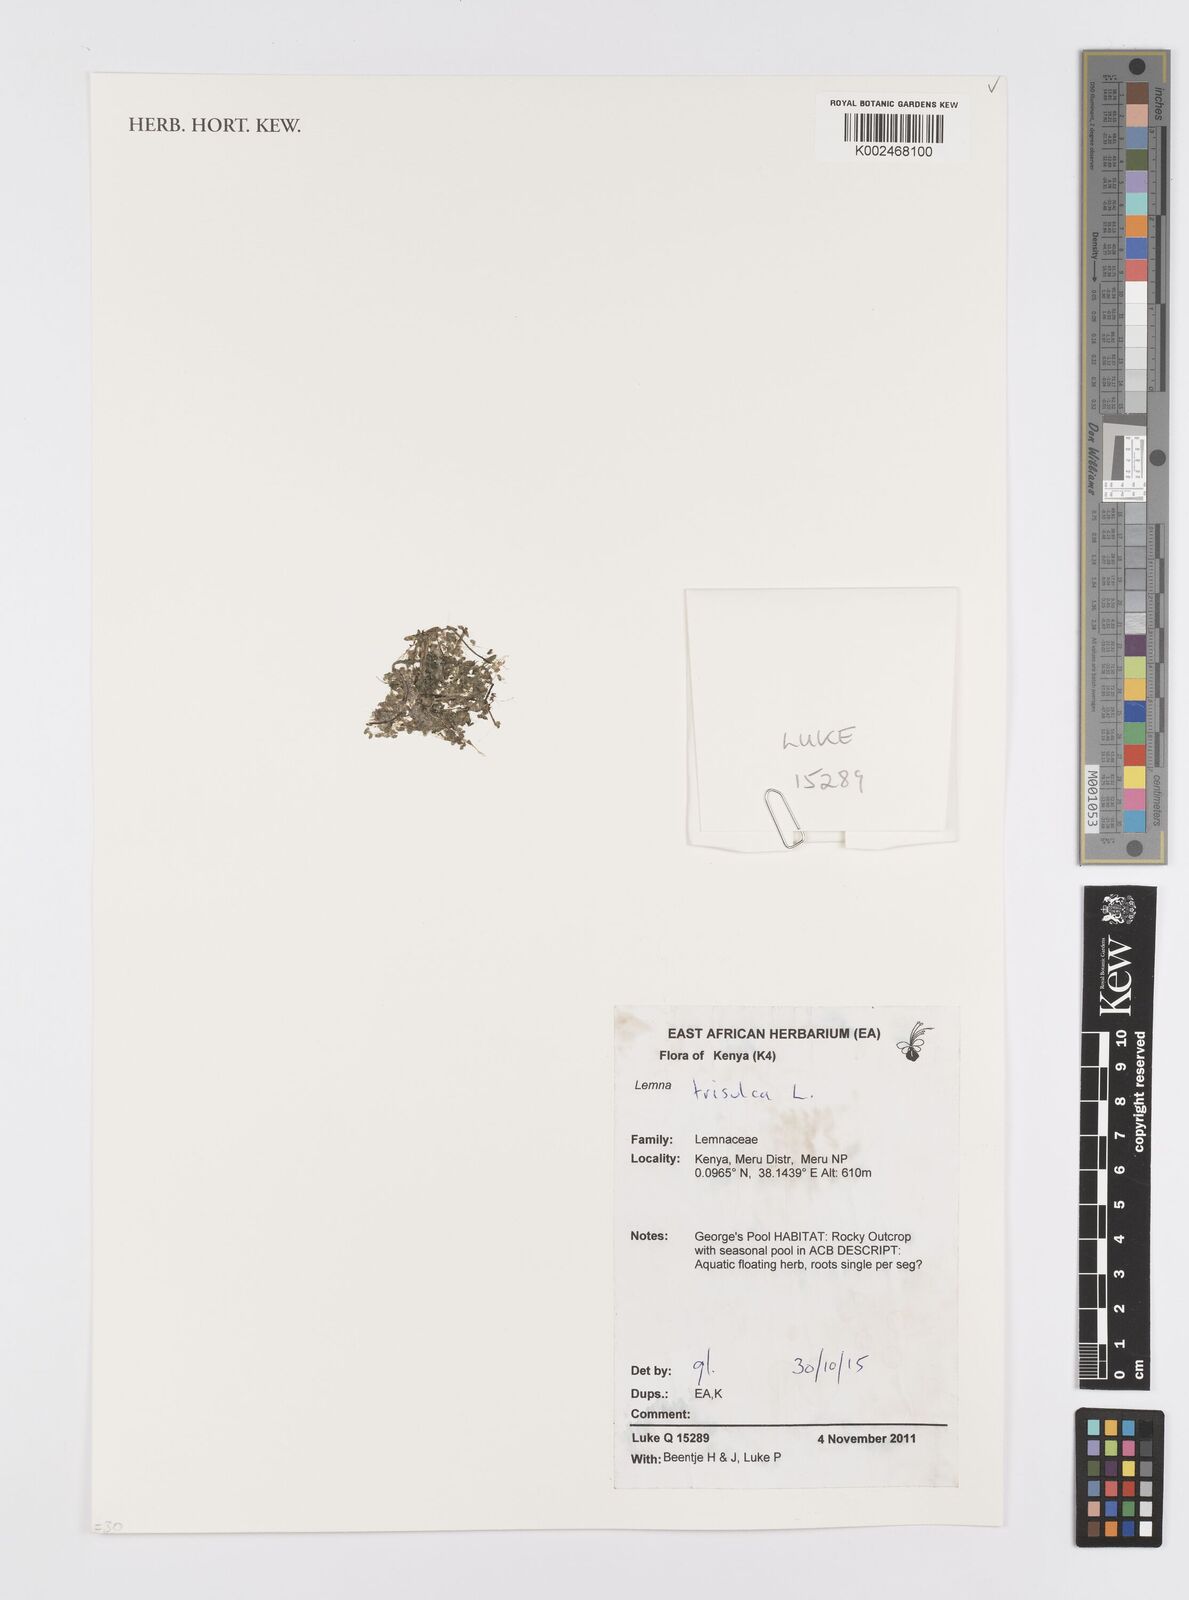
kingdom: Plantae
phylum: Tracheophyta
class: Liliopsida
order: Alismatales
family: Araceae
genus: Lemna
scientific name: Lemna trisulca
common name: Ivy-leaved duckweed
